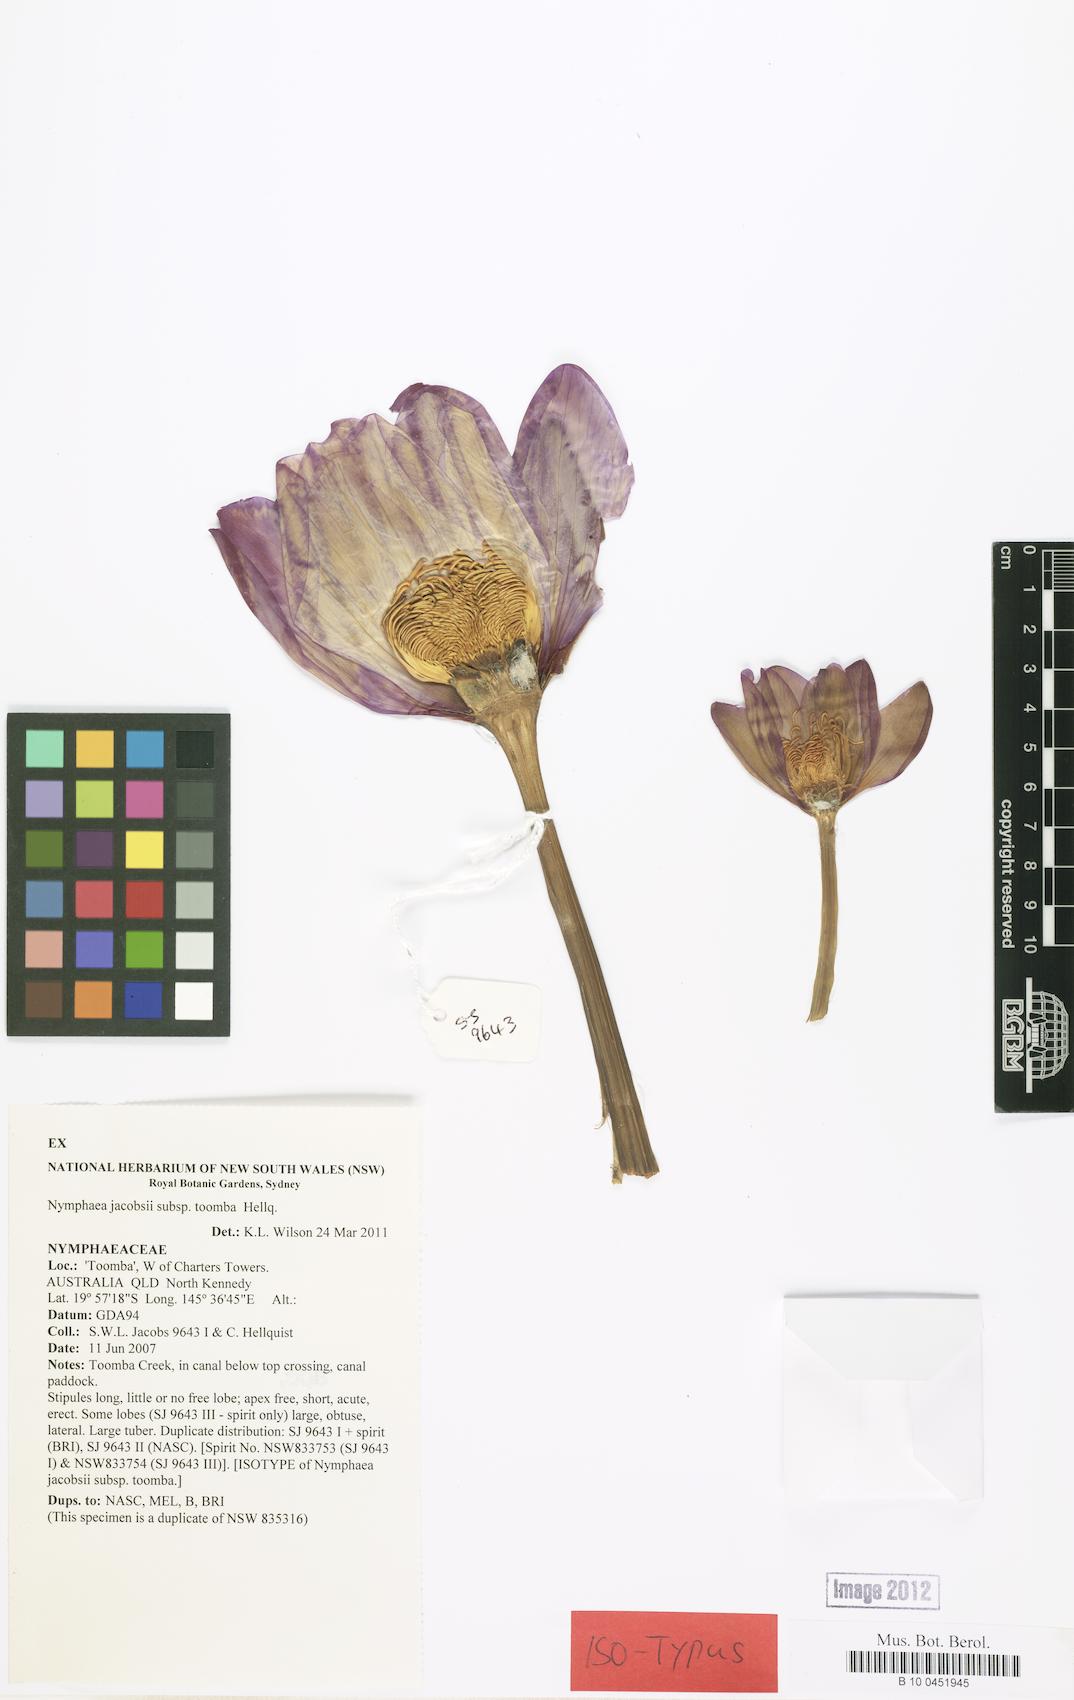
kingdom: Plantae
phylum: Tracheophyta
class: Magnoliopsida
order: Nymphaeales
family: Nymphaeaceae
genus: Nymphaea
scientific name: Nymphaea jacobsii
